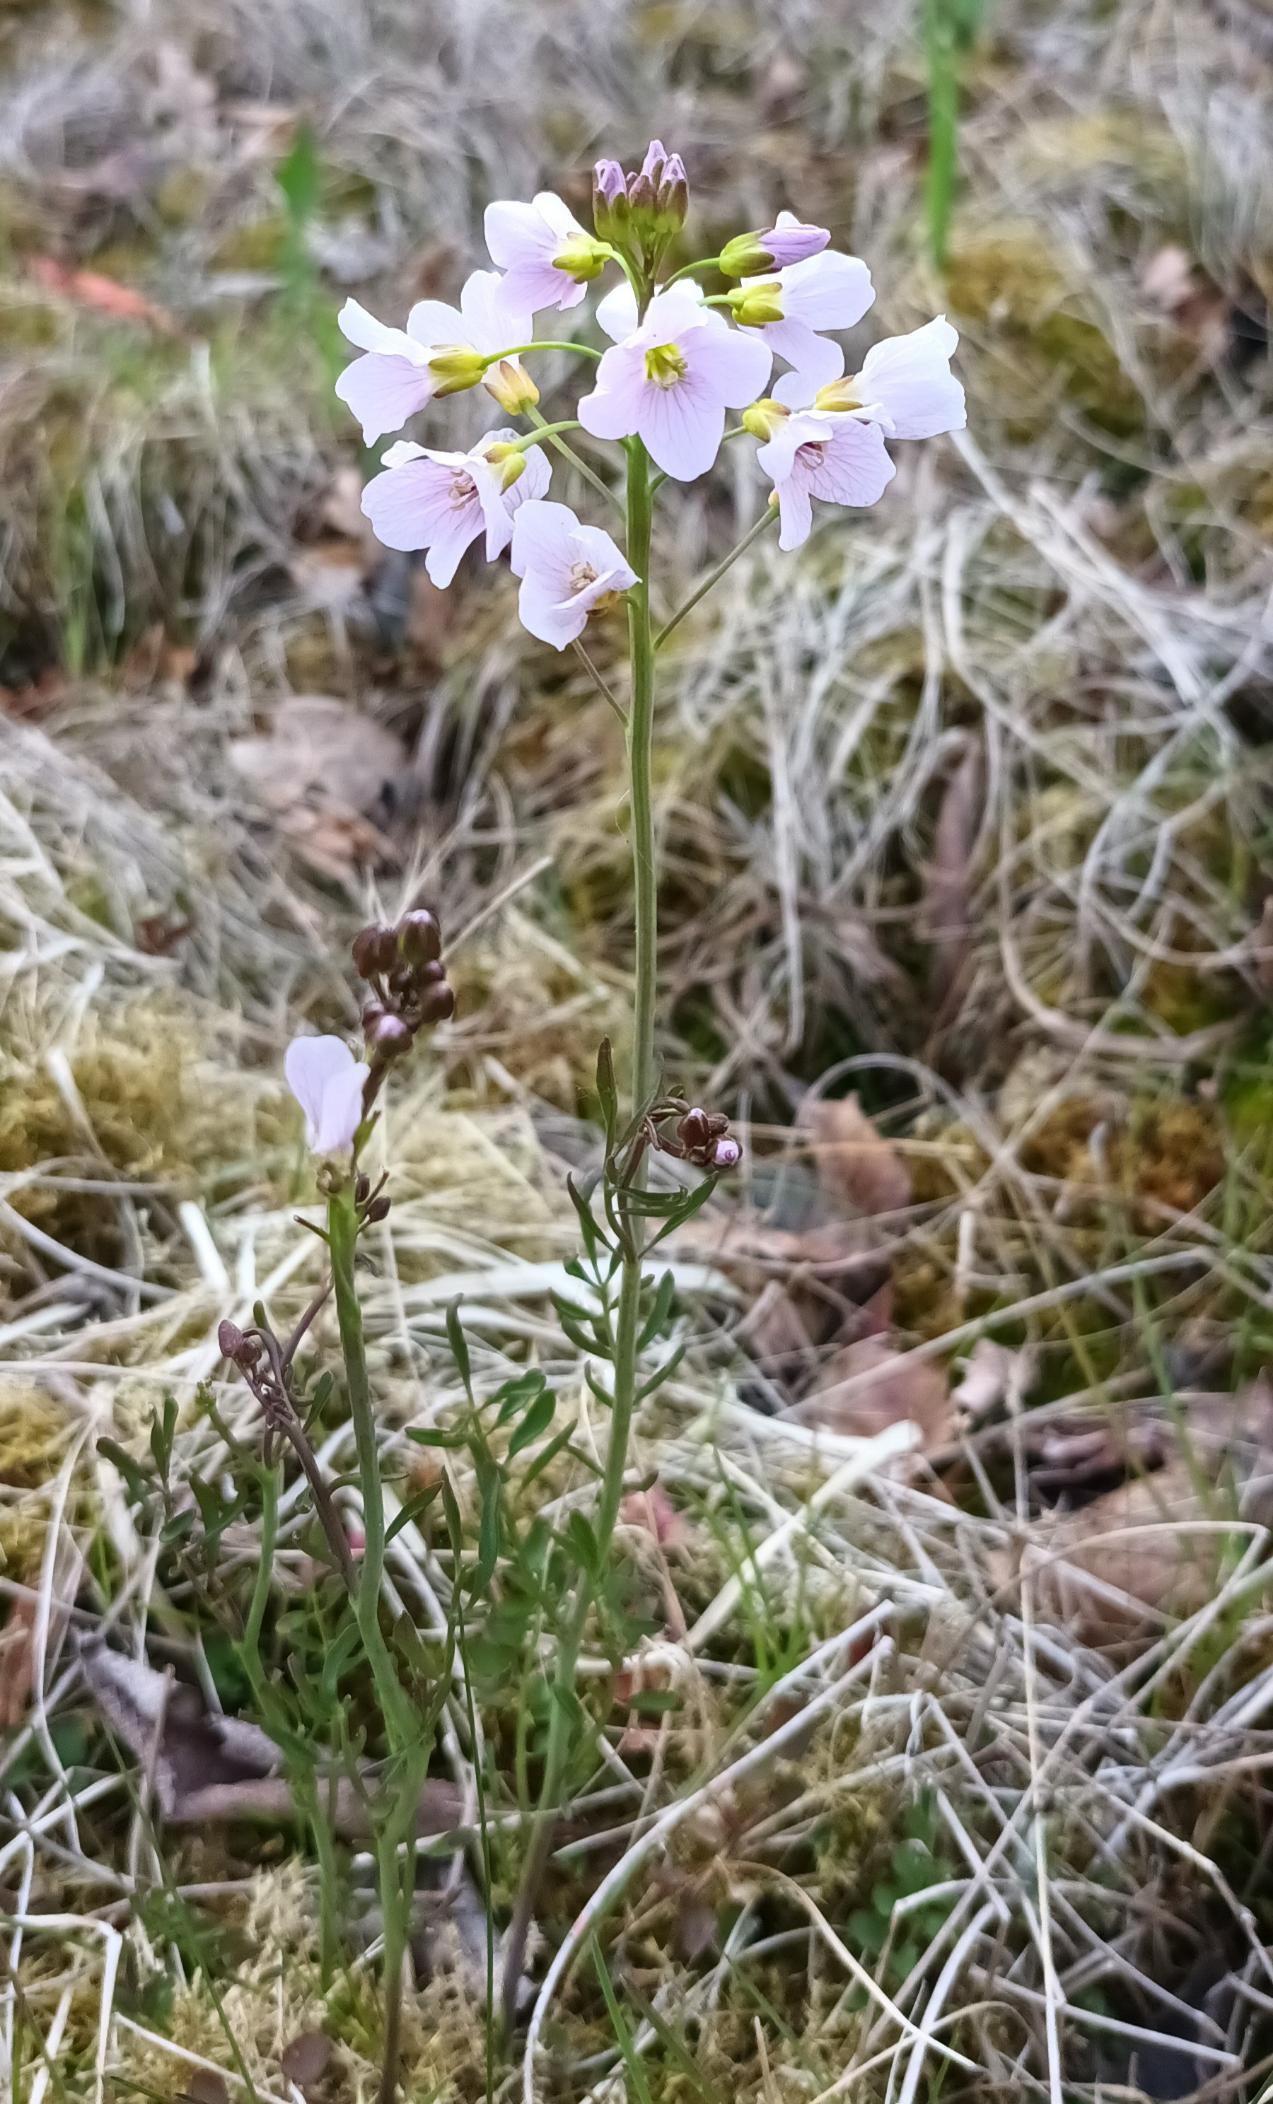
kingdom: Plantae
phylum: Tracheophyta
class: Magnoliopsida
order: Brassicales
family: Brassicaceae
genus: Cardamine
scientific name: Cardamine pratensis
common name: Engkarse
